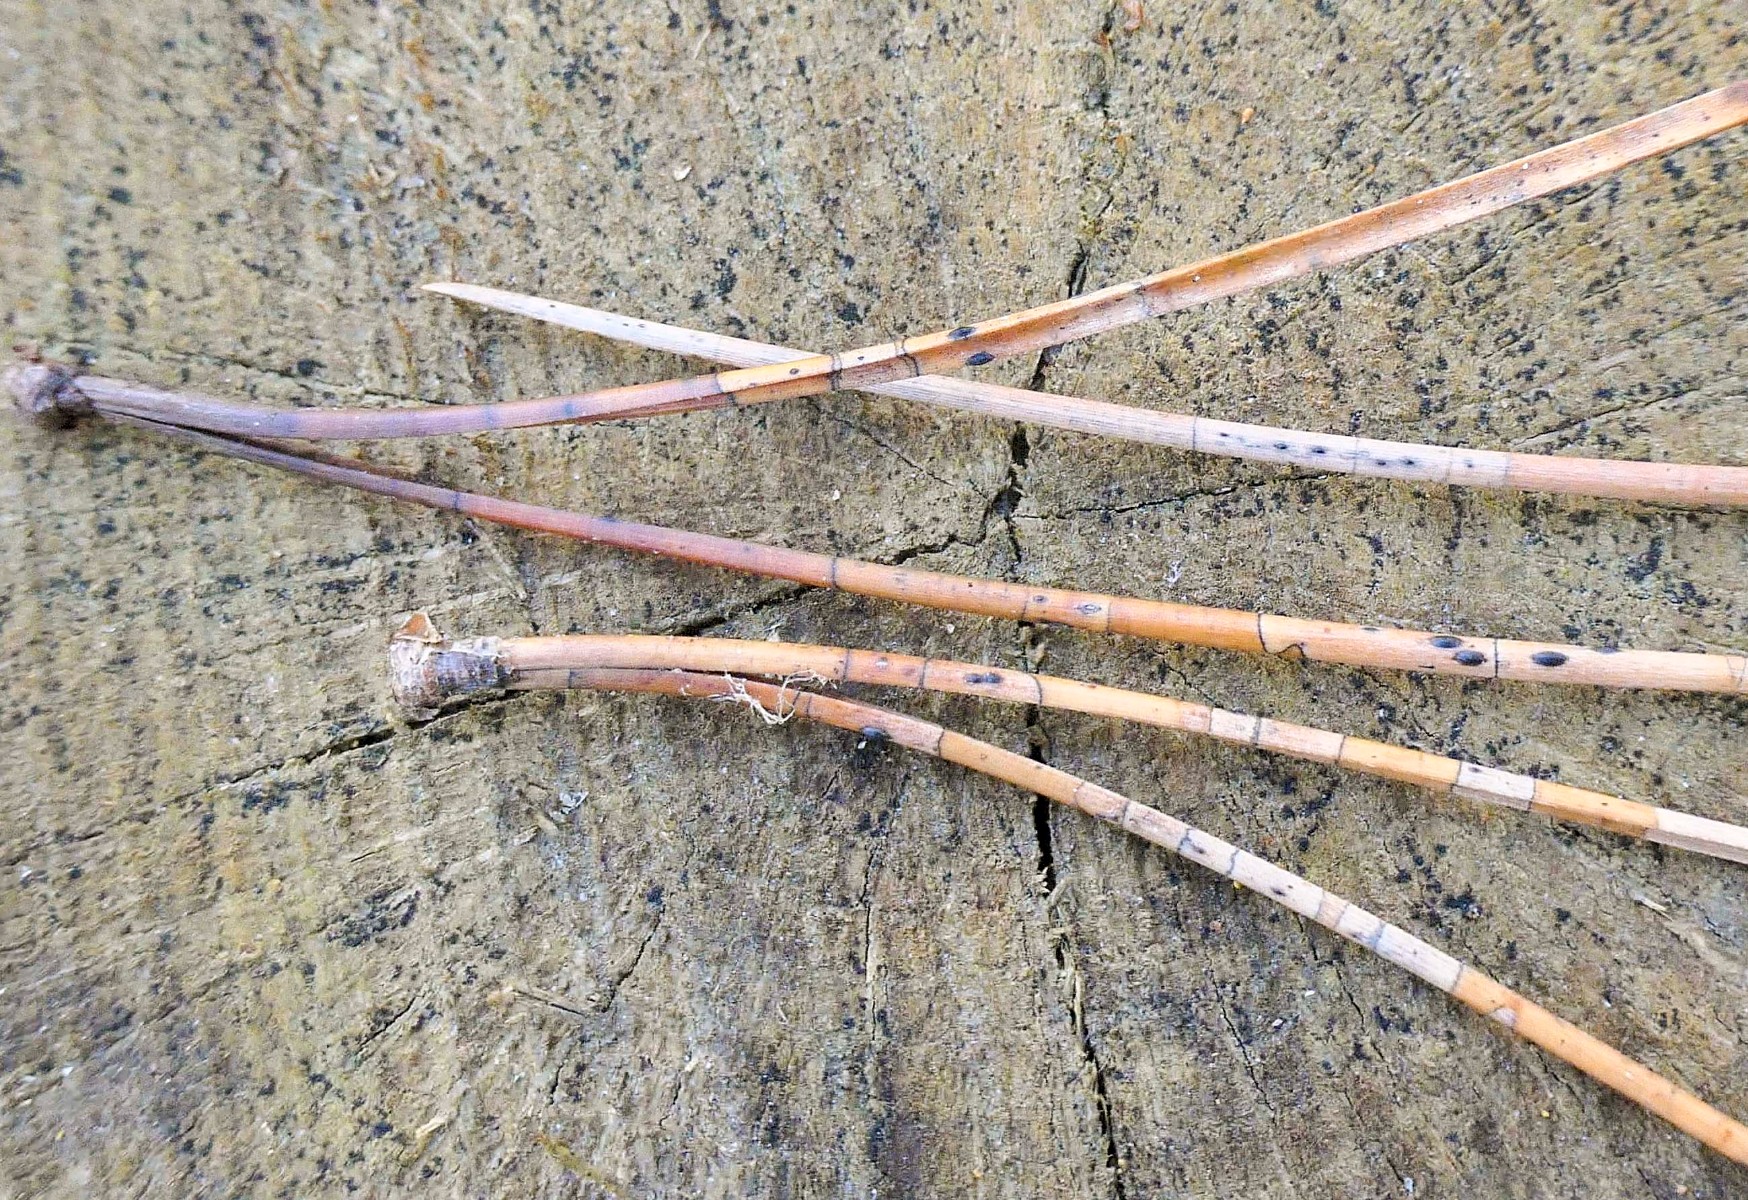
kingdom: Fungi
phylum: Ascomycota
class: Leotiomycetes
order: Rhytismatales
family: Rhytismataceae
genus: Lophodermium
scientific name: Lophodermium pinastri
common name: fyrre-fureplet
